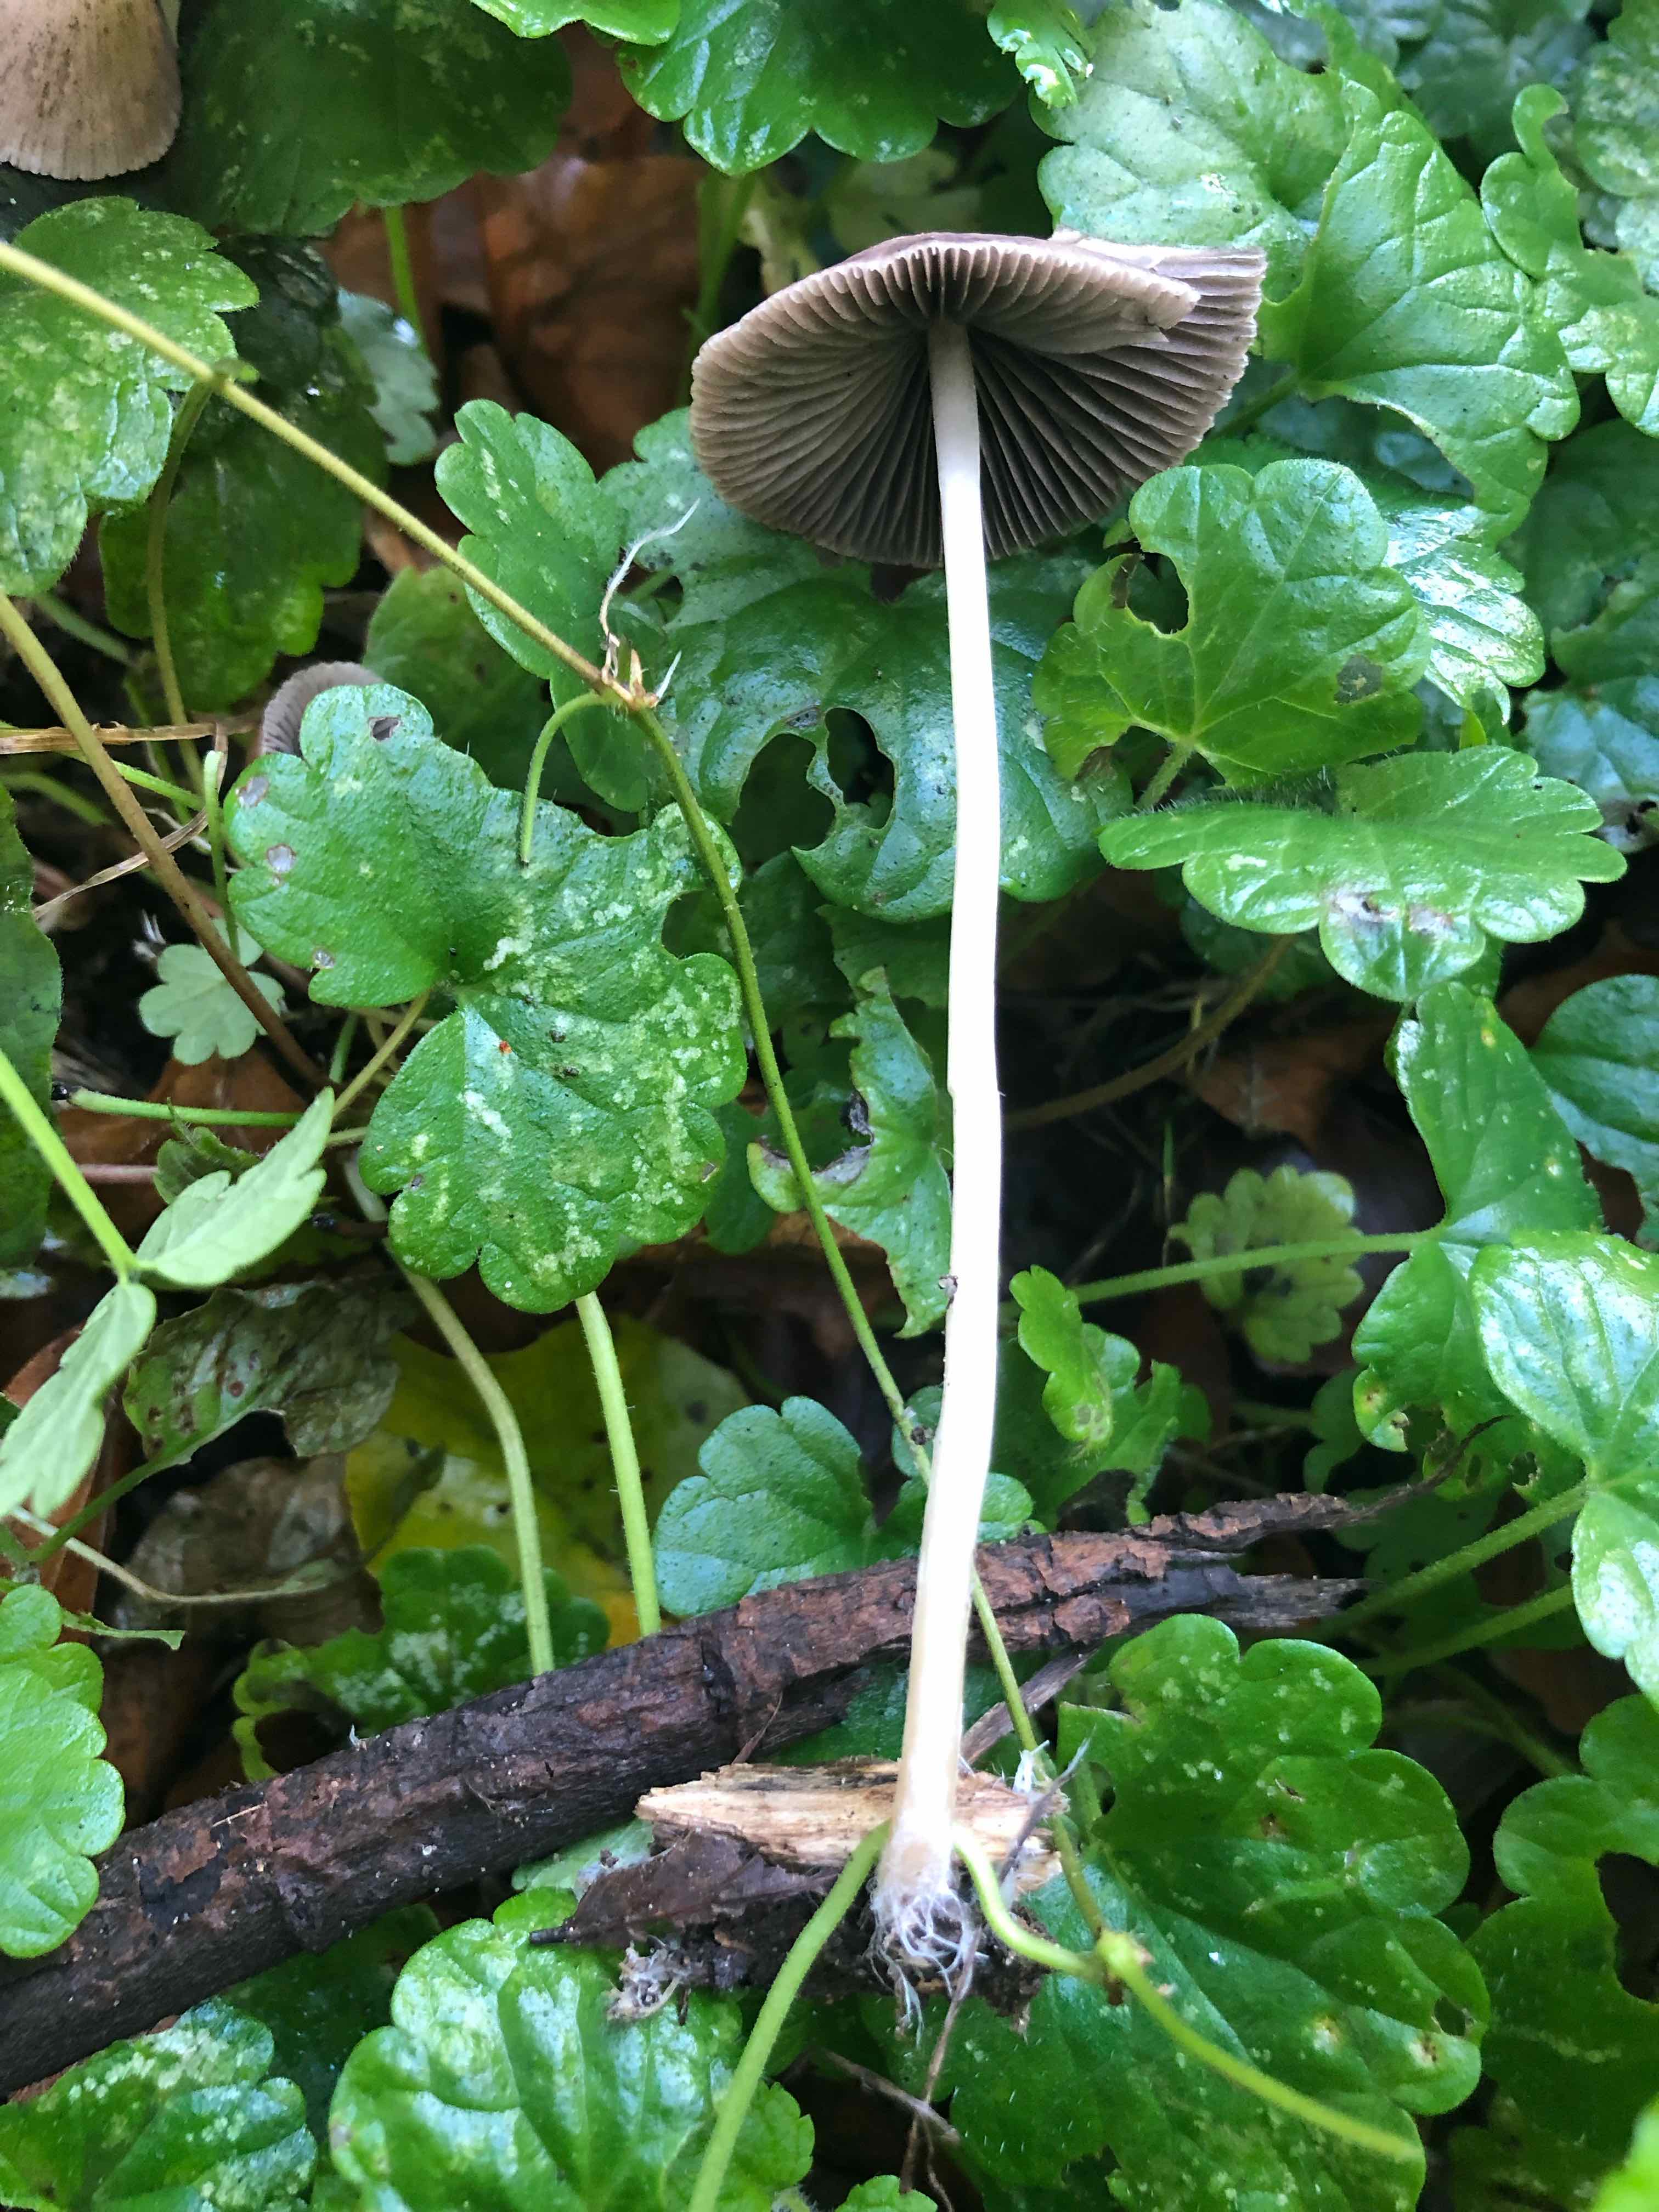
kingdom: Fungi
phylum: Basidiomycota
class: Agaricomycetes
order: Agaricales
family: Psathyrellaceae
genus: Psathyrella
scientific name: Psathyrella
